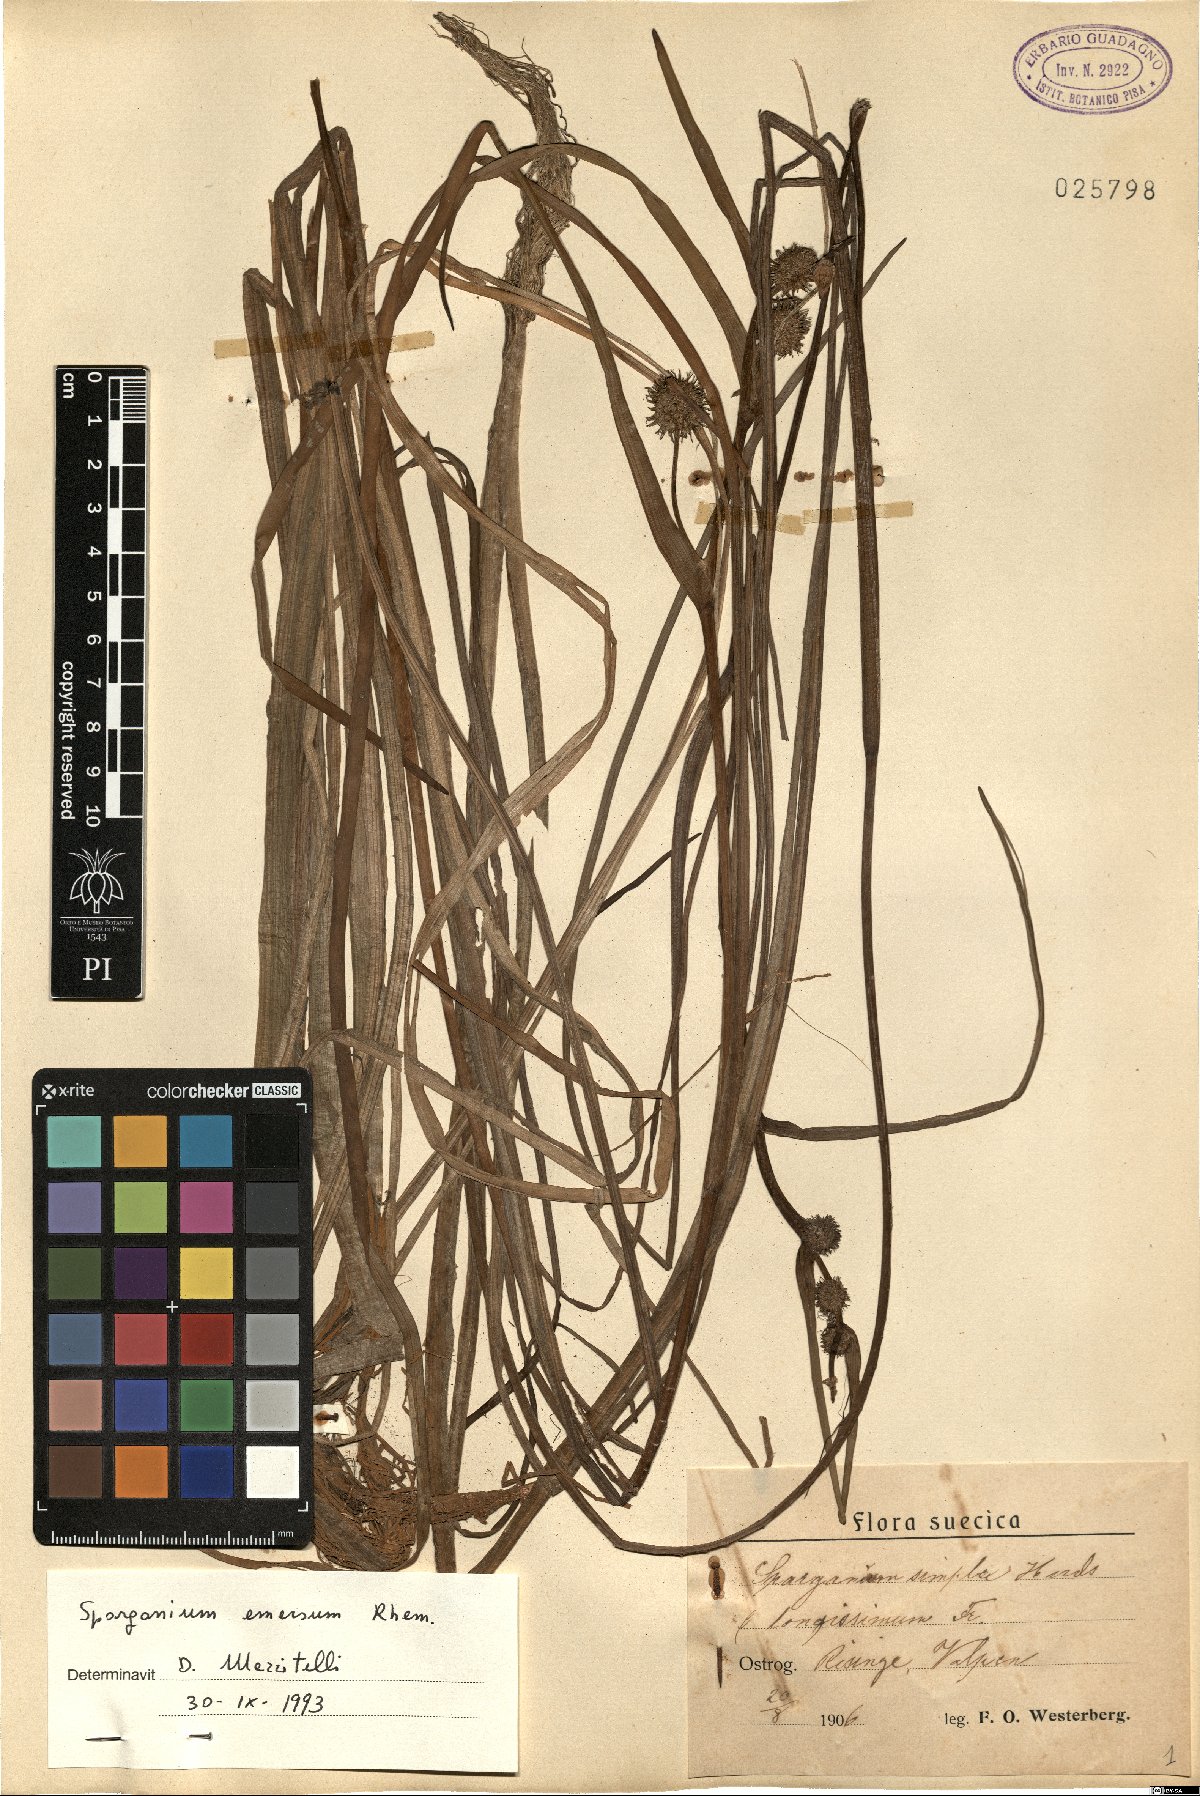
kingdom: Plantae
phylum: Tracheophyta
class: Liliopsida
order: Poales
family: Typhaceae
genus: Sparganium
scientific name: Sparganium emersum
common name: Unbranched bur-reed
